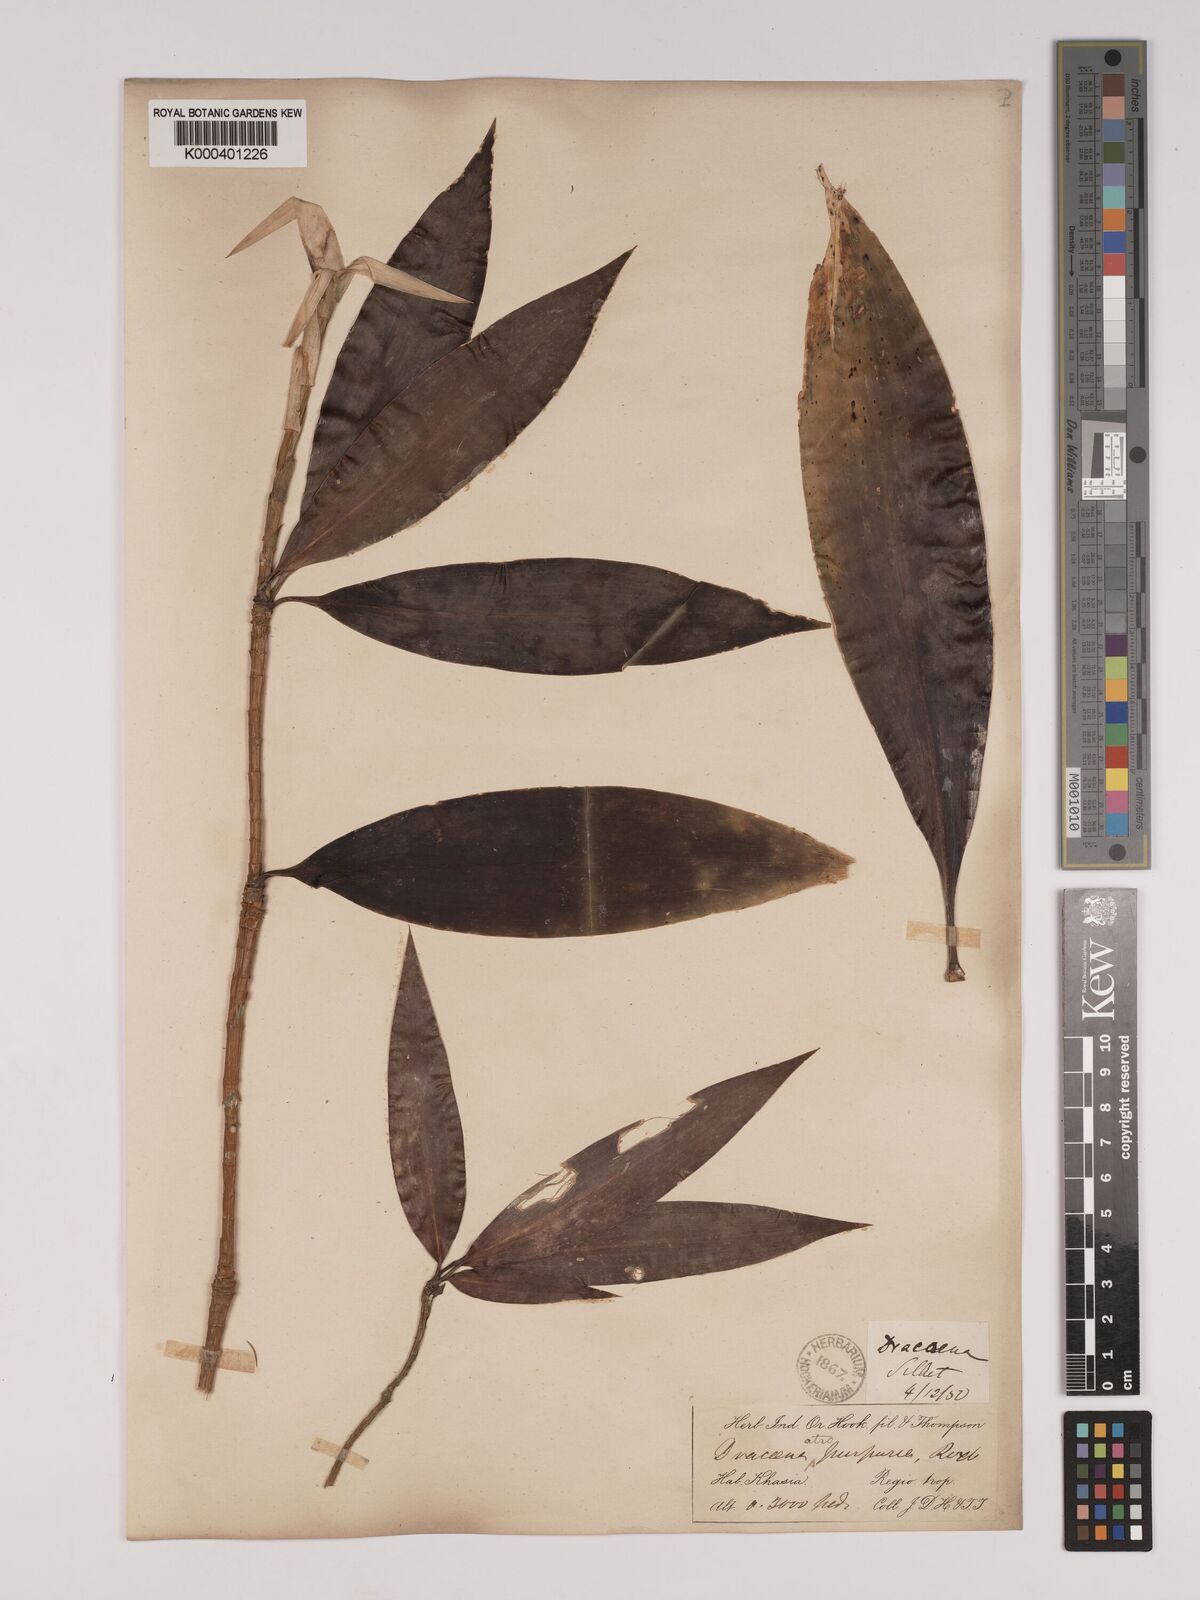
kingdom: Plantae
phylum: Tracheophyta
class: Liliopsida
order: Asparagales
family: Asparagaceae
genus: Dracaena
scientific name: Dracaena elliptica
